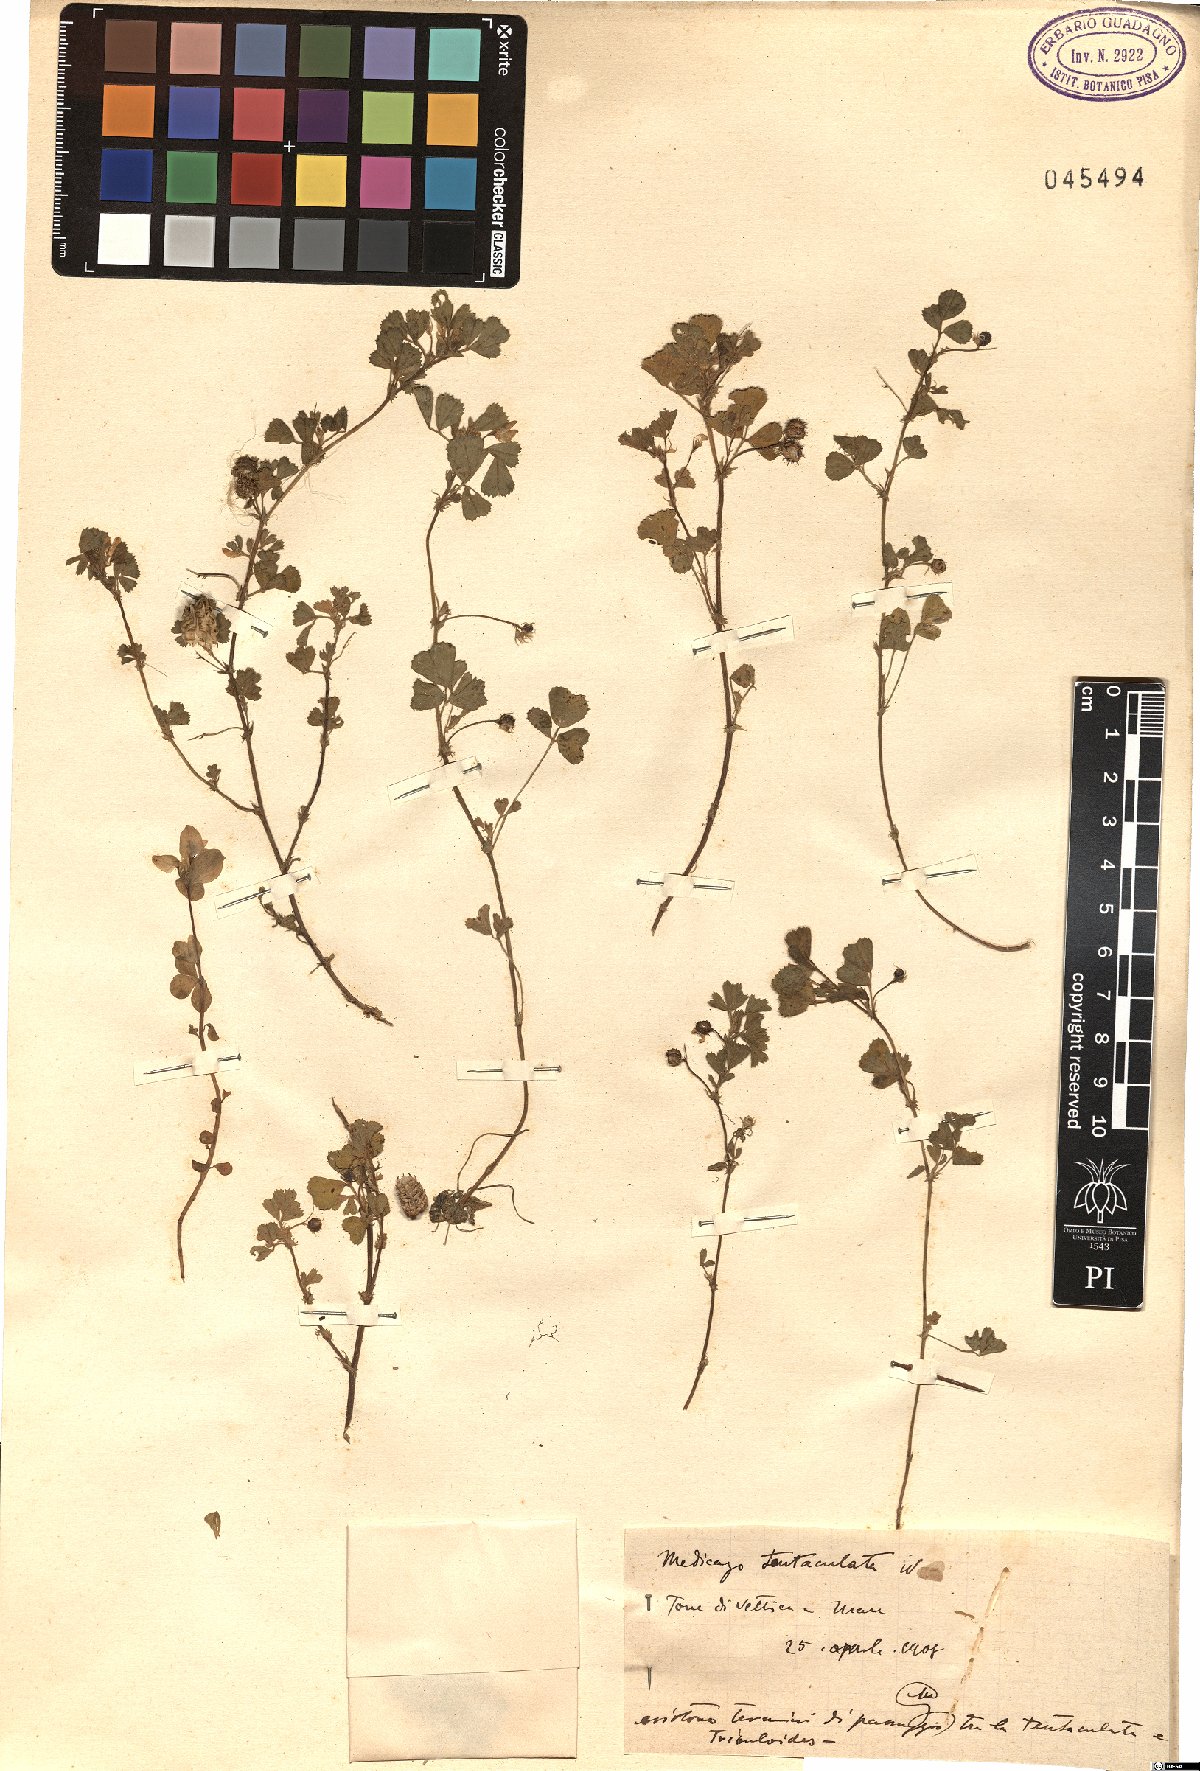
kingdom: Plantae
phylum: Tracheophyta
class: Magnoliopsida
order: Fabales
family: Fabaceae
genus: Medicago
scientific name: Medicago truncatula
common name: Strong-spined medick
